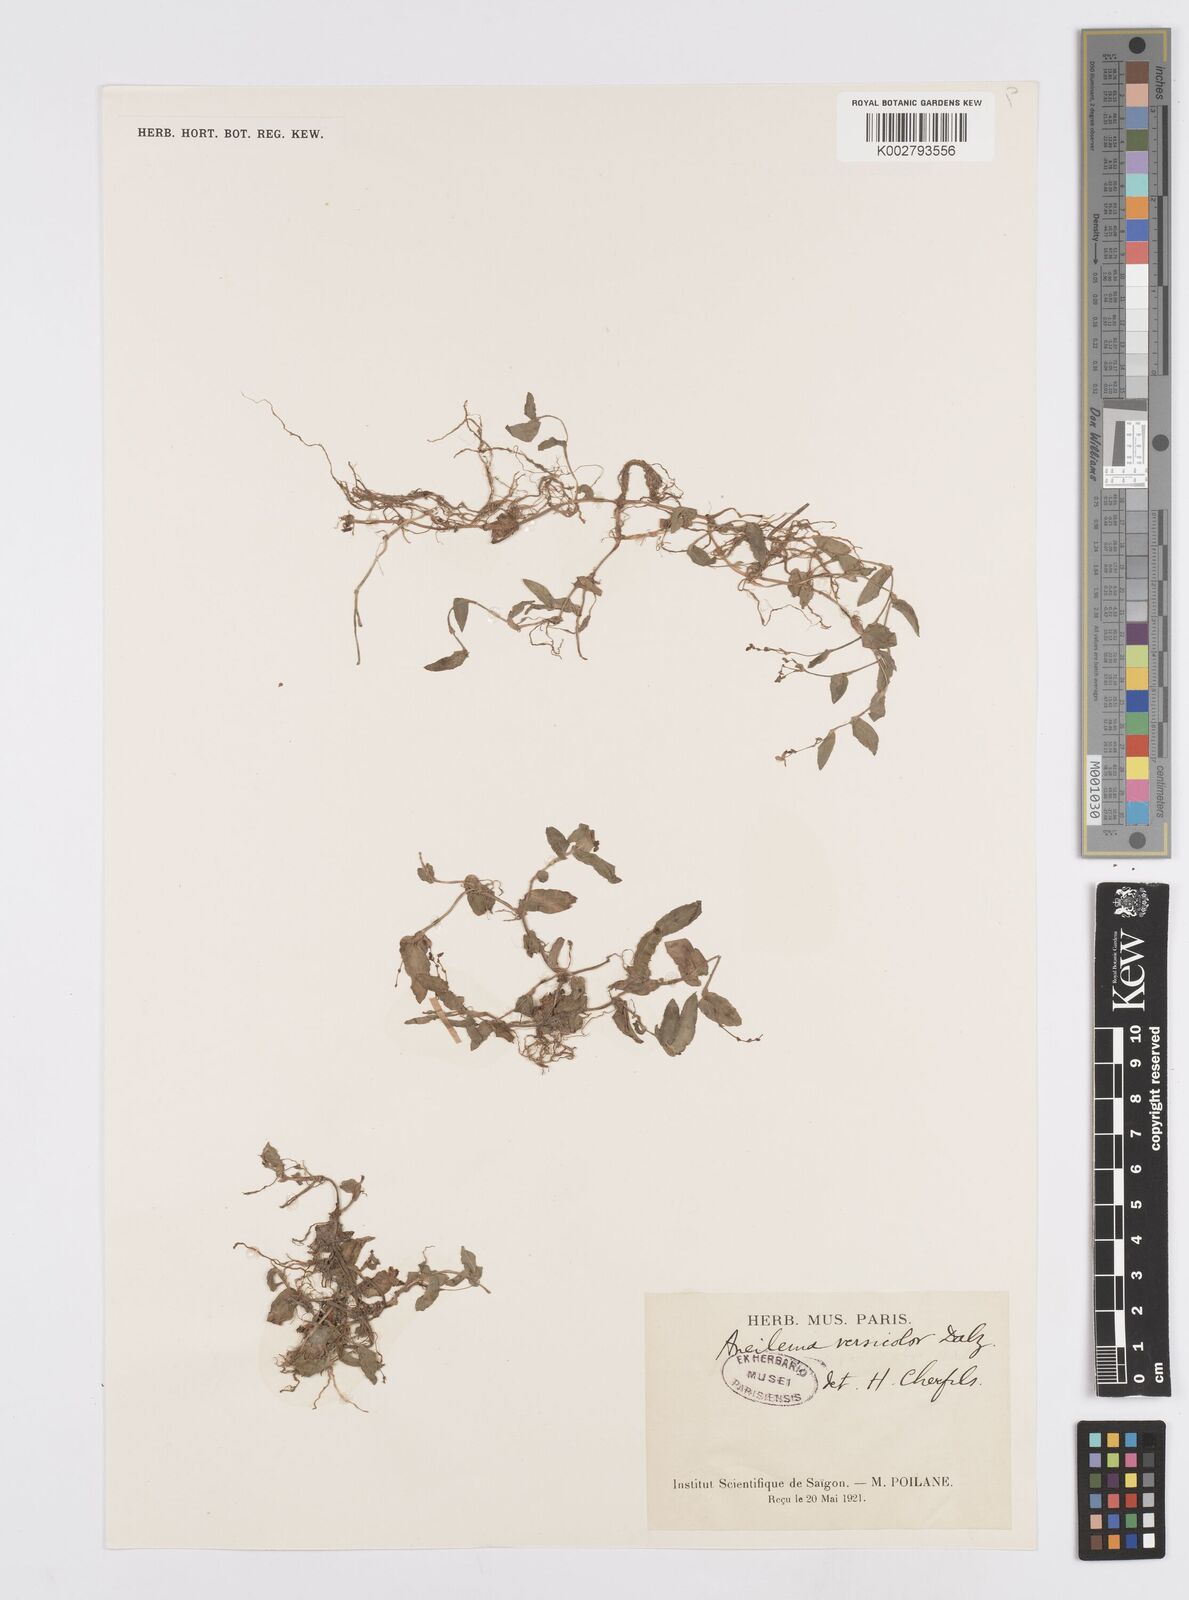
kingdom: Plantae
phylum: Tracheophyta
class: Liliopsida
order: Commelinales
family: Commelinaceae
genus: Murdannia
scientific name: Murdannia spirata
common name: Asiatic dewflower
